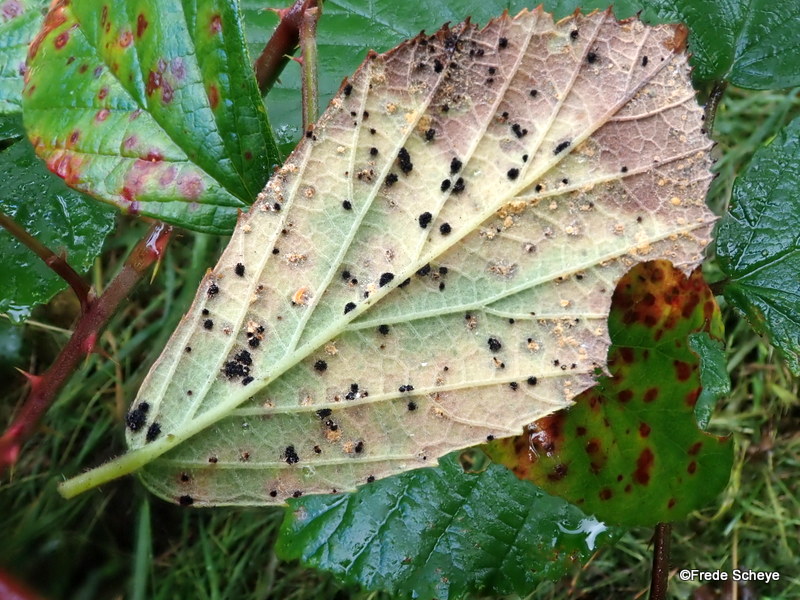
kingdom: Fungi
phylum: Basidiomycota
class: Pucciniomycetes
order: Pucciniales
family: Phragmidiaceae
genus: Phragmidium
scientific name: Phragmidium violaceum
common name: violet flercellerust
